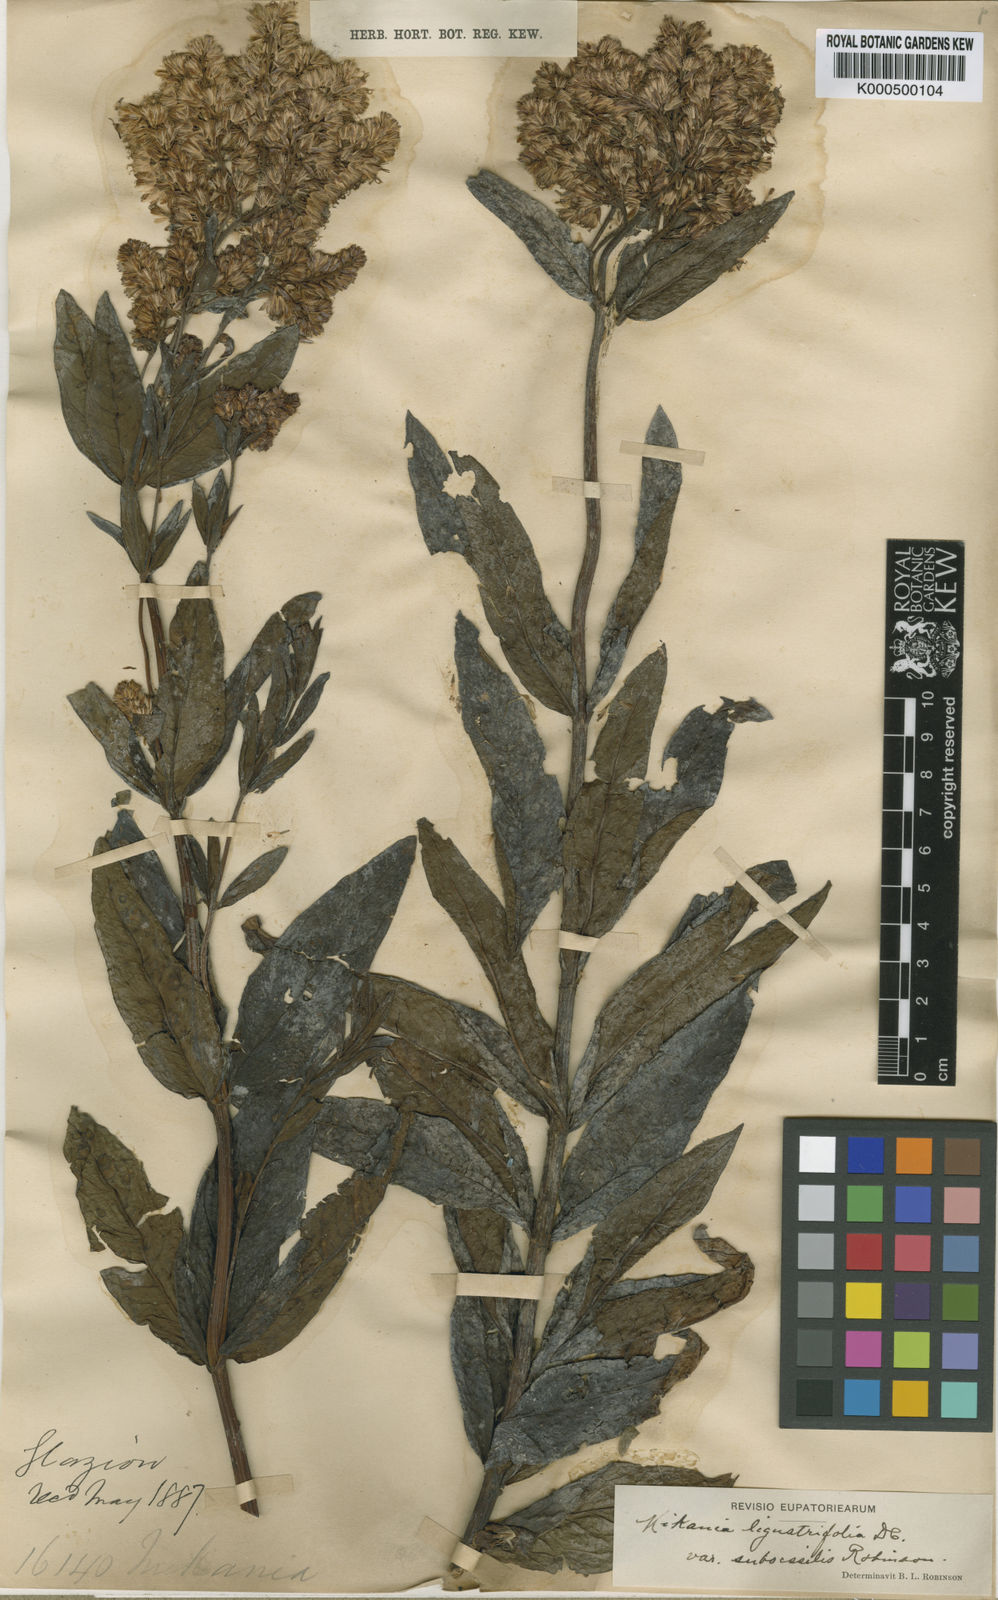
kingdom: Plantae
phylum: Tracheophyta
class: Magnoliopsida
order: Asterales
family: Asteraceae
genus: Mikania
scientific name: Mikania ligustrifolia
